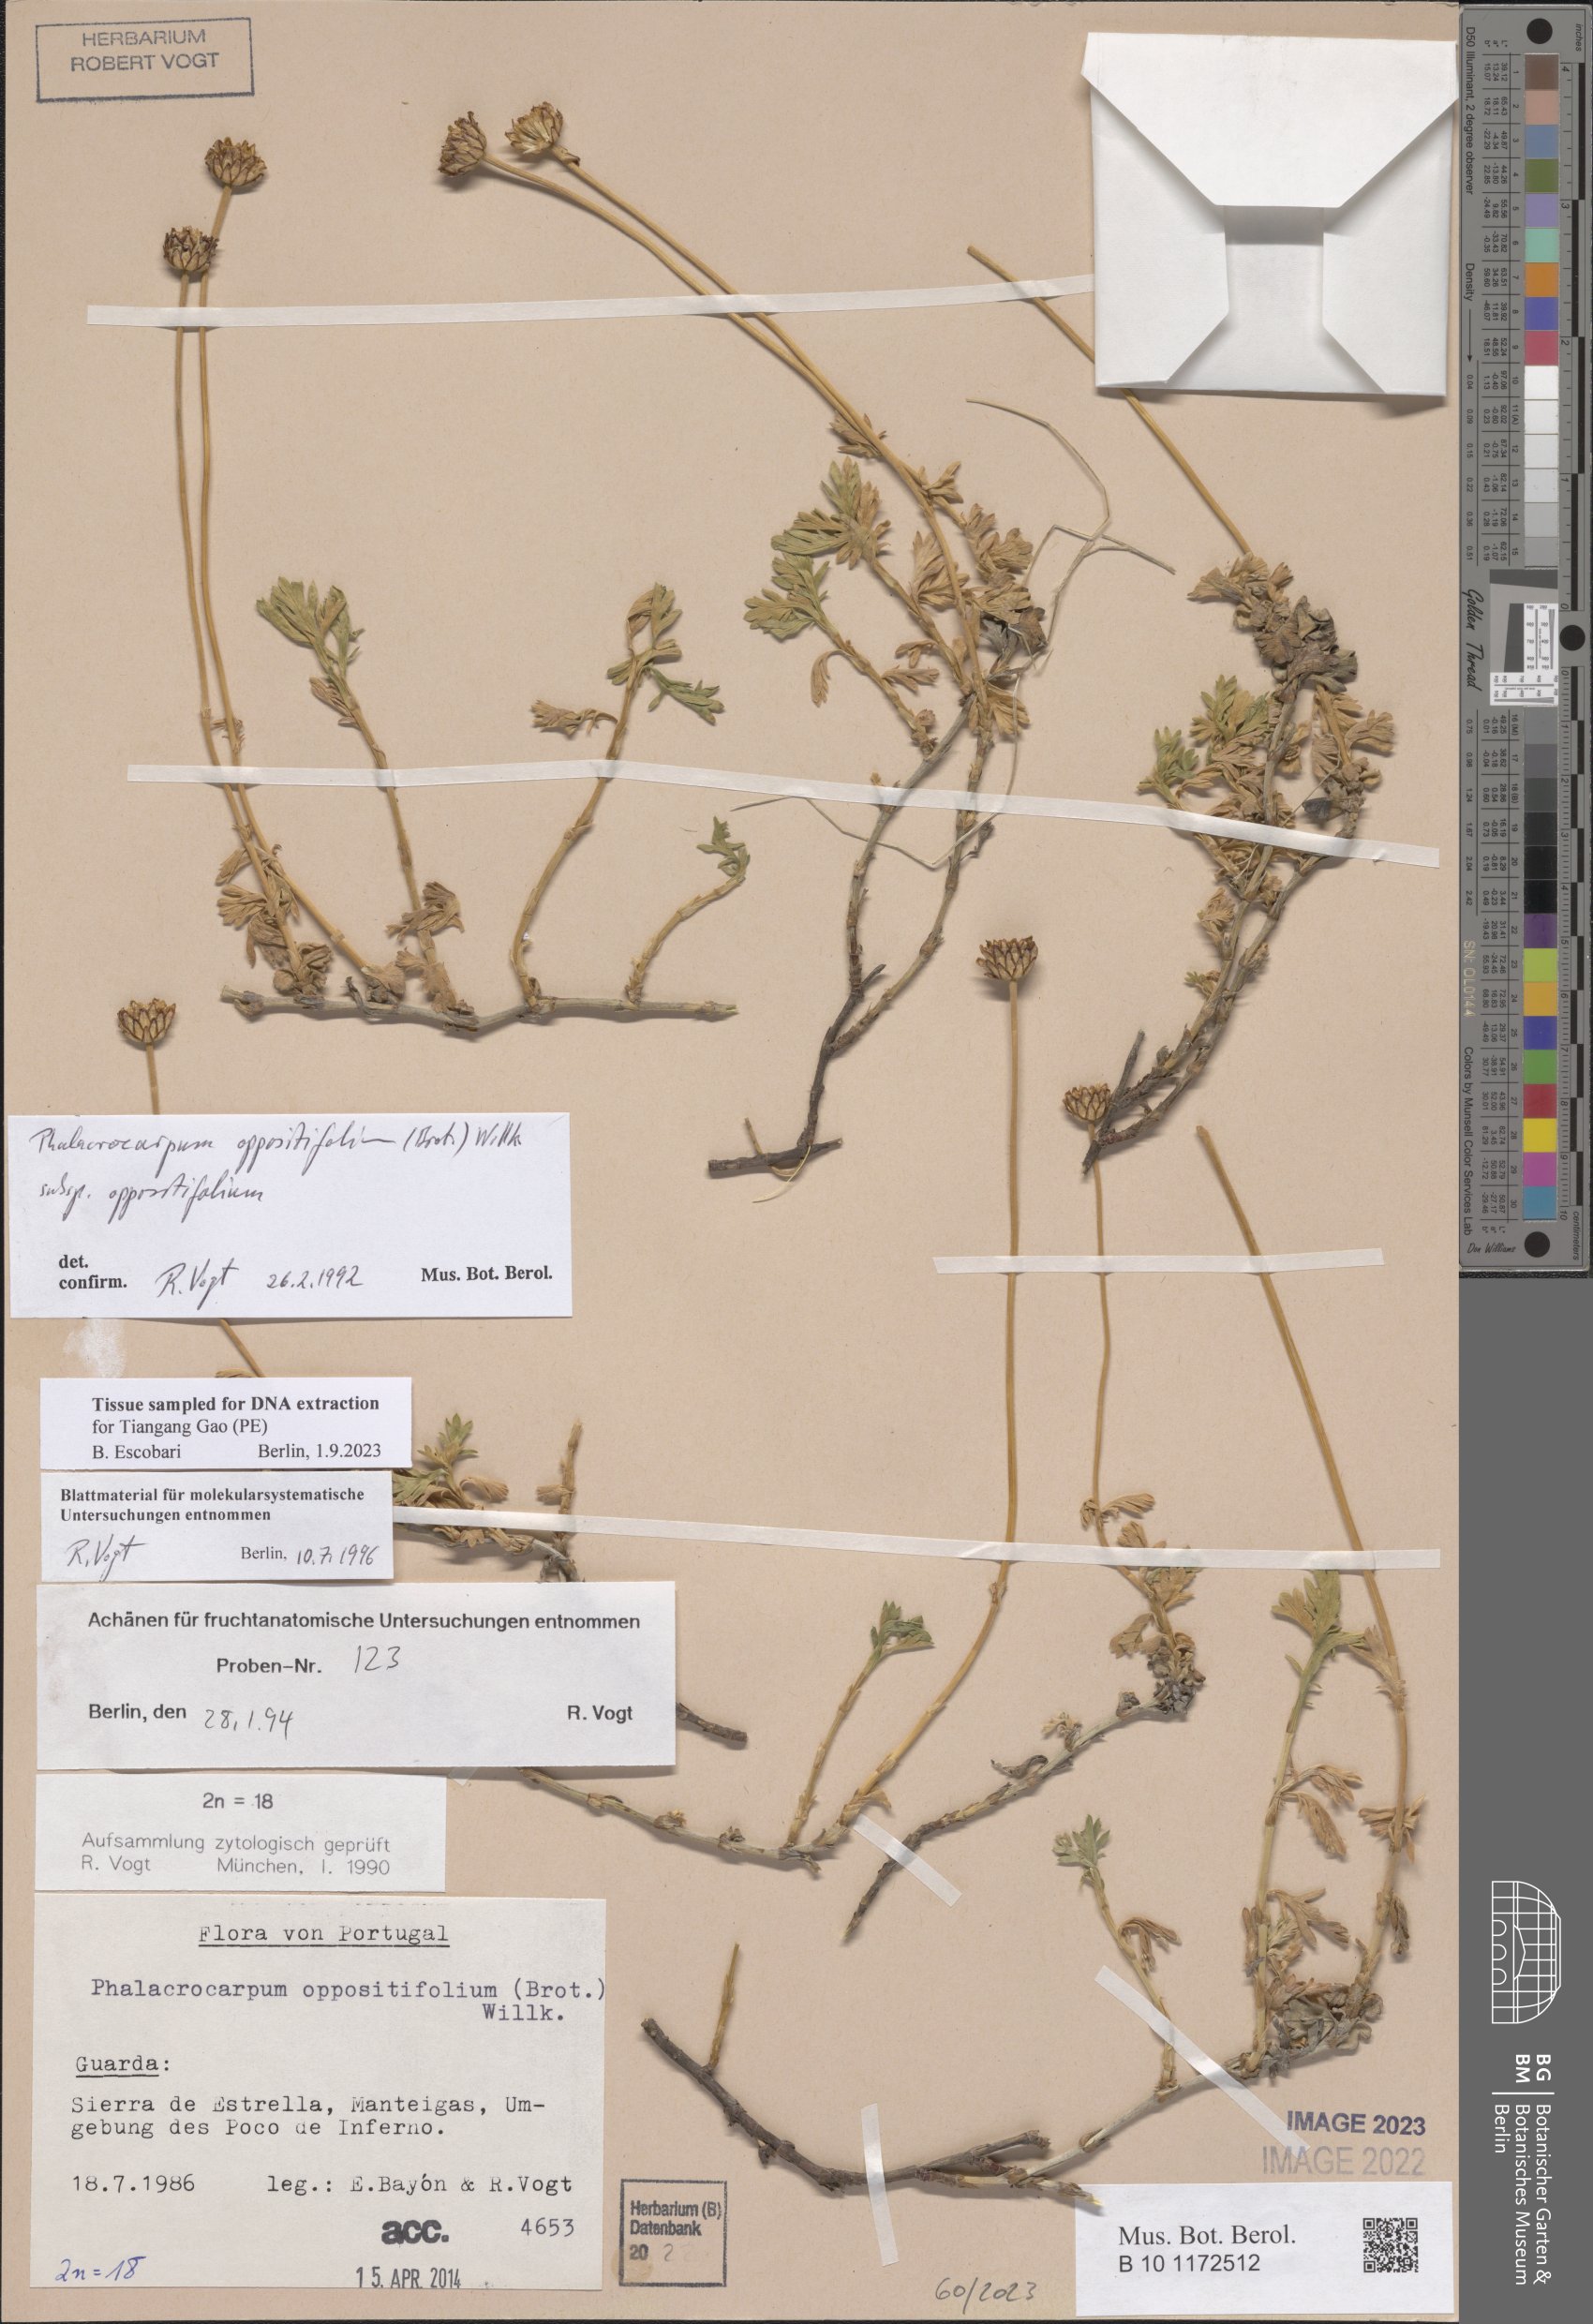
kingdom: Plantae
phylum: Tracheophyta
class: Magnoliopsida
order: Asterales
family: Asteraceae
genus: Phalacrocarpum
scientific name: Phalacrocarpum oppositifolium
